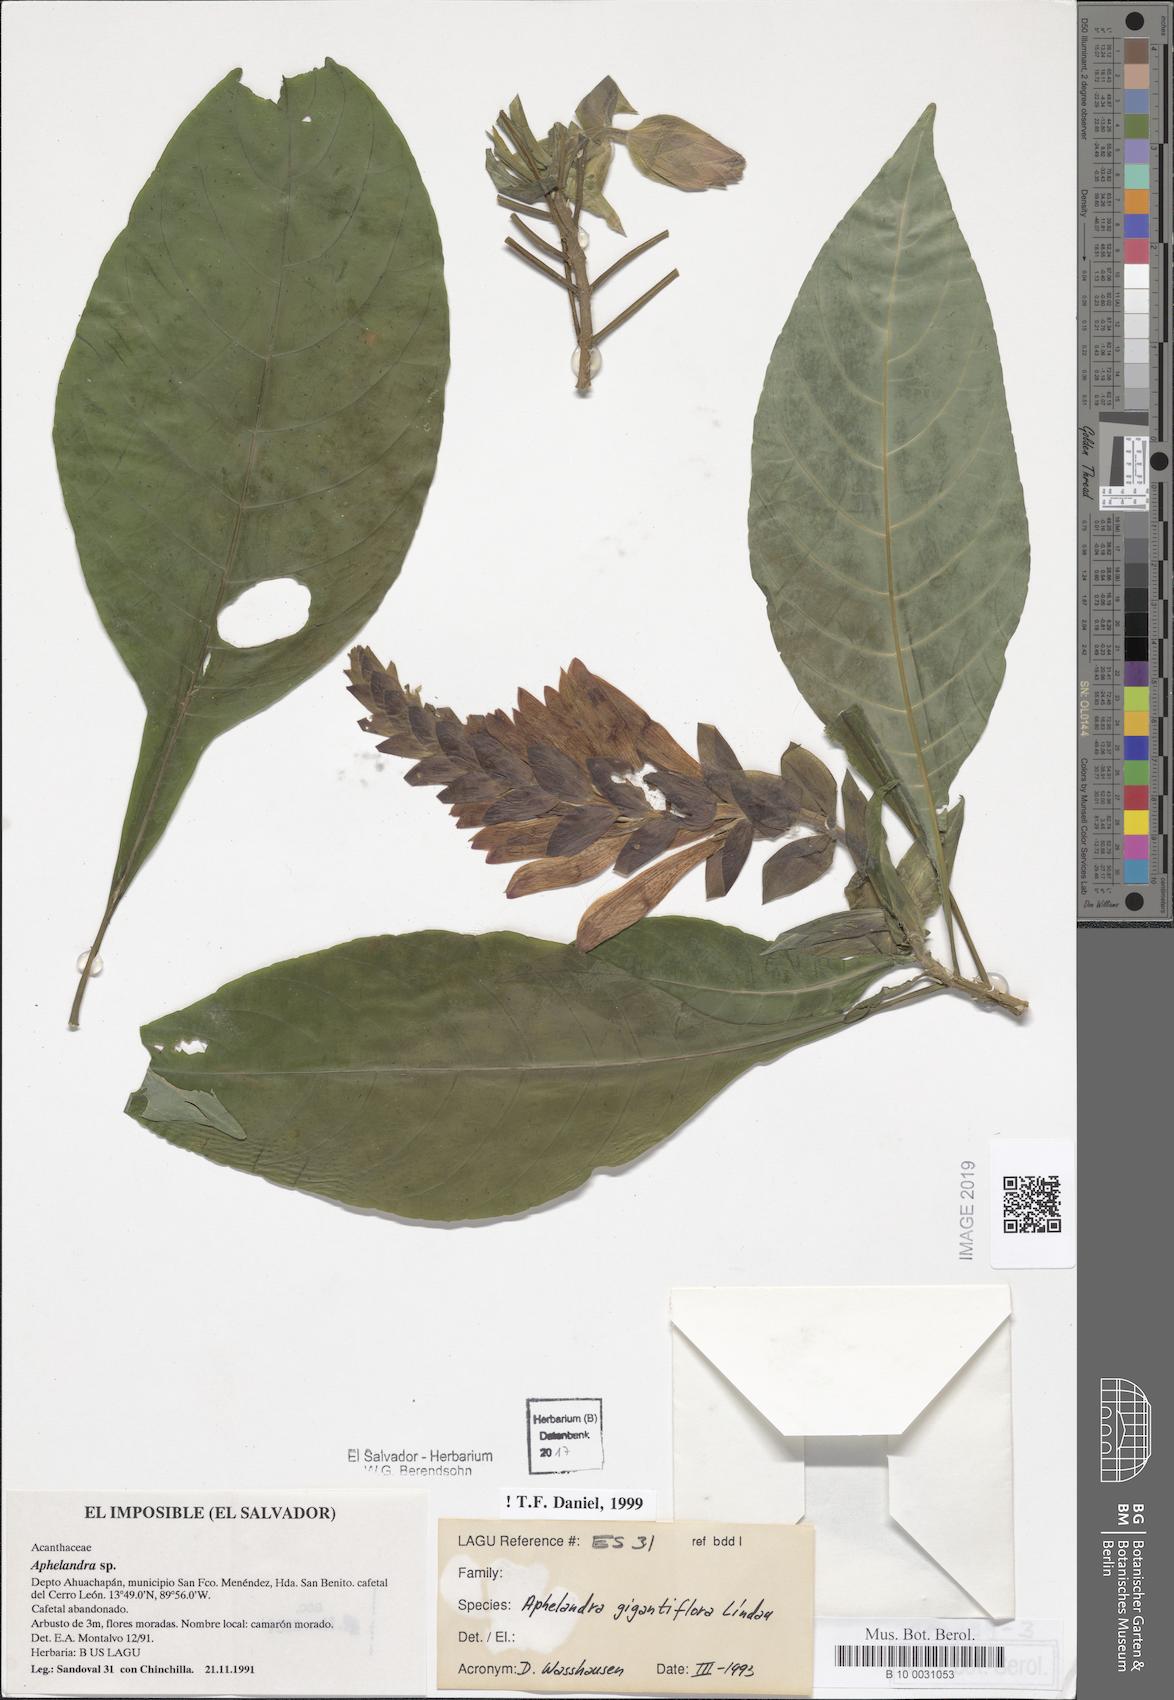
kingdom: Plantae
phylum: Tracheophyta
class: Magnoliopsida
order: Lamiales
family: Acanthaceae
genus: Aphelandra
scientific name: Aphelandra gigantiflora
